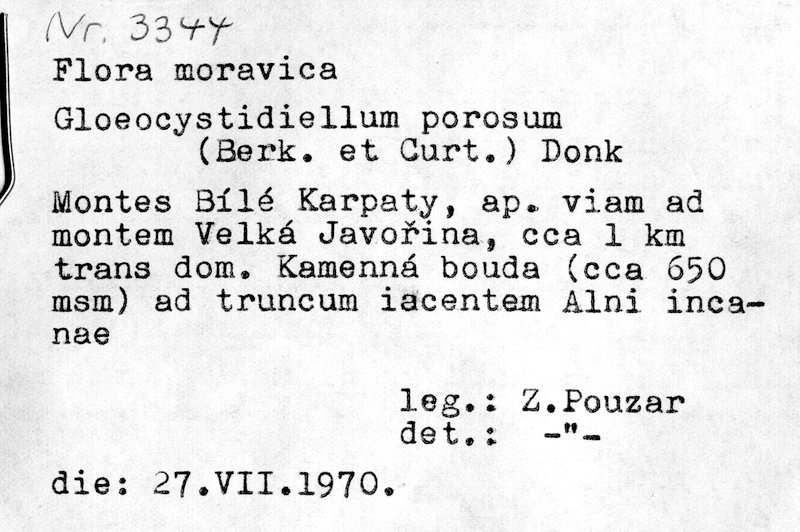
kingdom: Fungi
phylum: Basidiomycota
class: Agaricomycetes
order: Russulales
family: Stereaceae
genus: Gloeocystidiellum
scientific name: Gloeocystidiellum porosum
